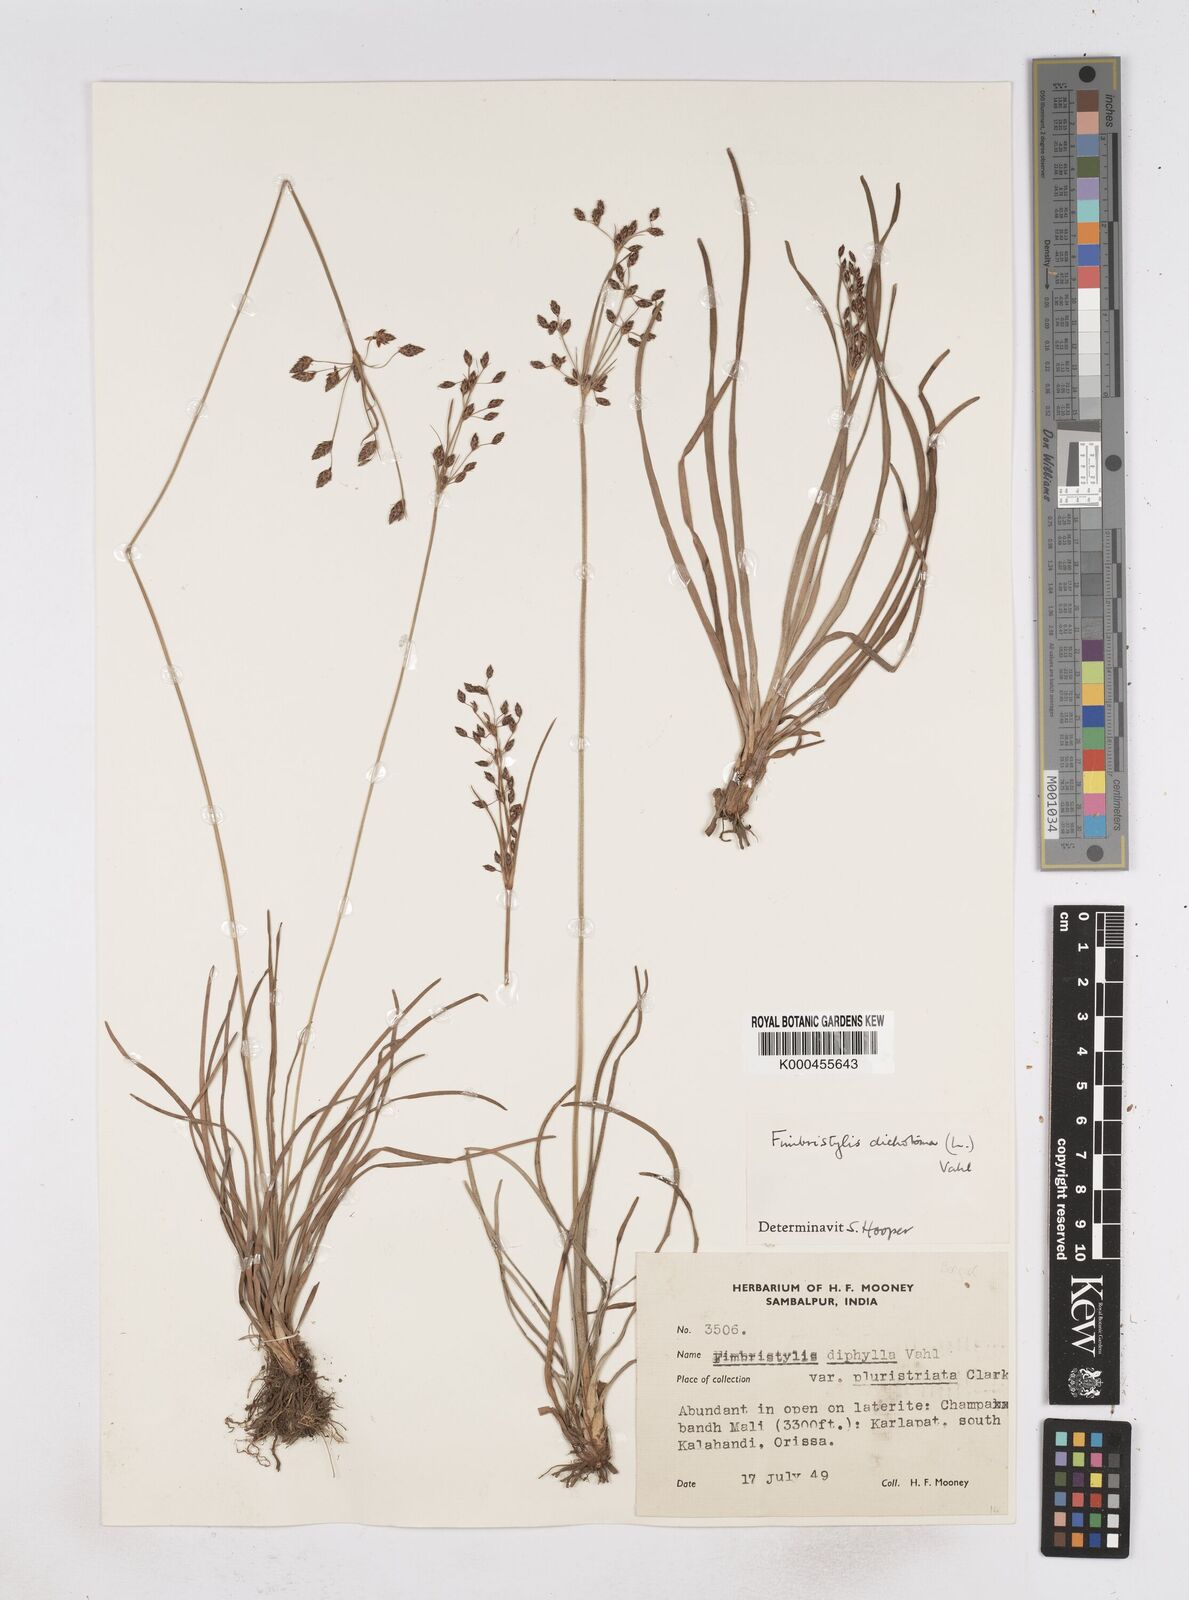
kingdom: Plantae
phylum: Tracheophyta
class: Liliopsida
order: Poales
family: Cyperaceae
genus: Fimbristylis
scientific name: Fimbristylis dichotoma
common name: Forked fimbry
